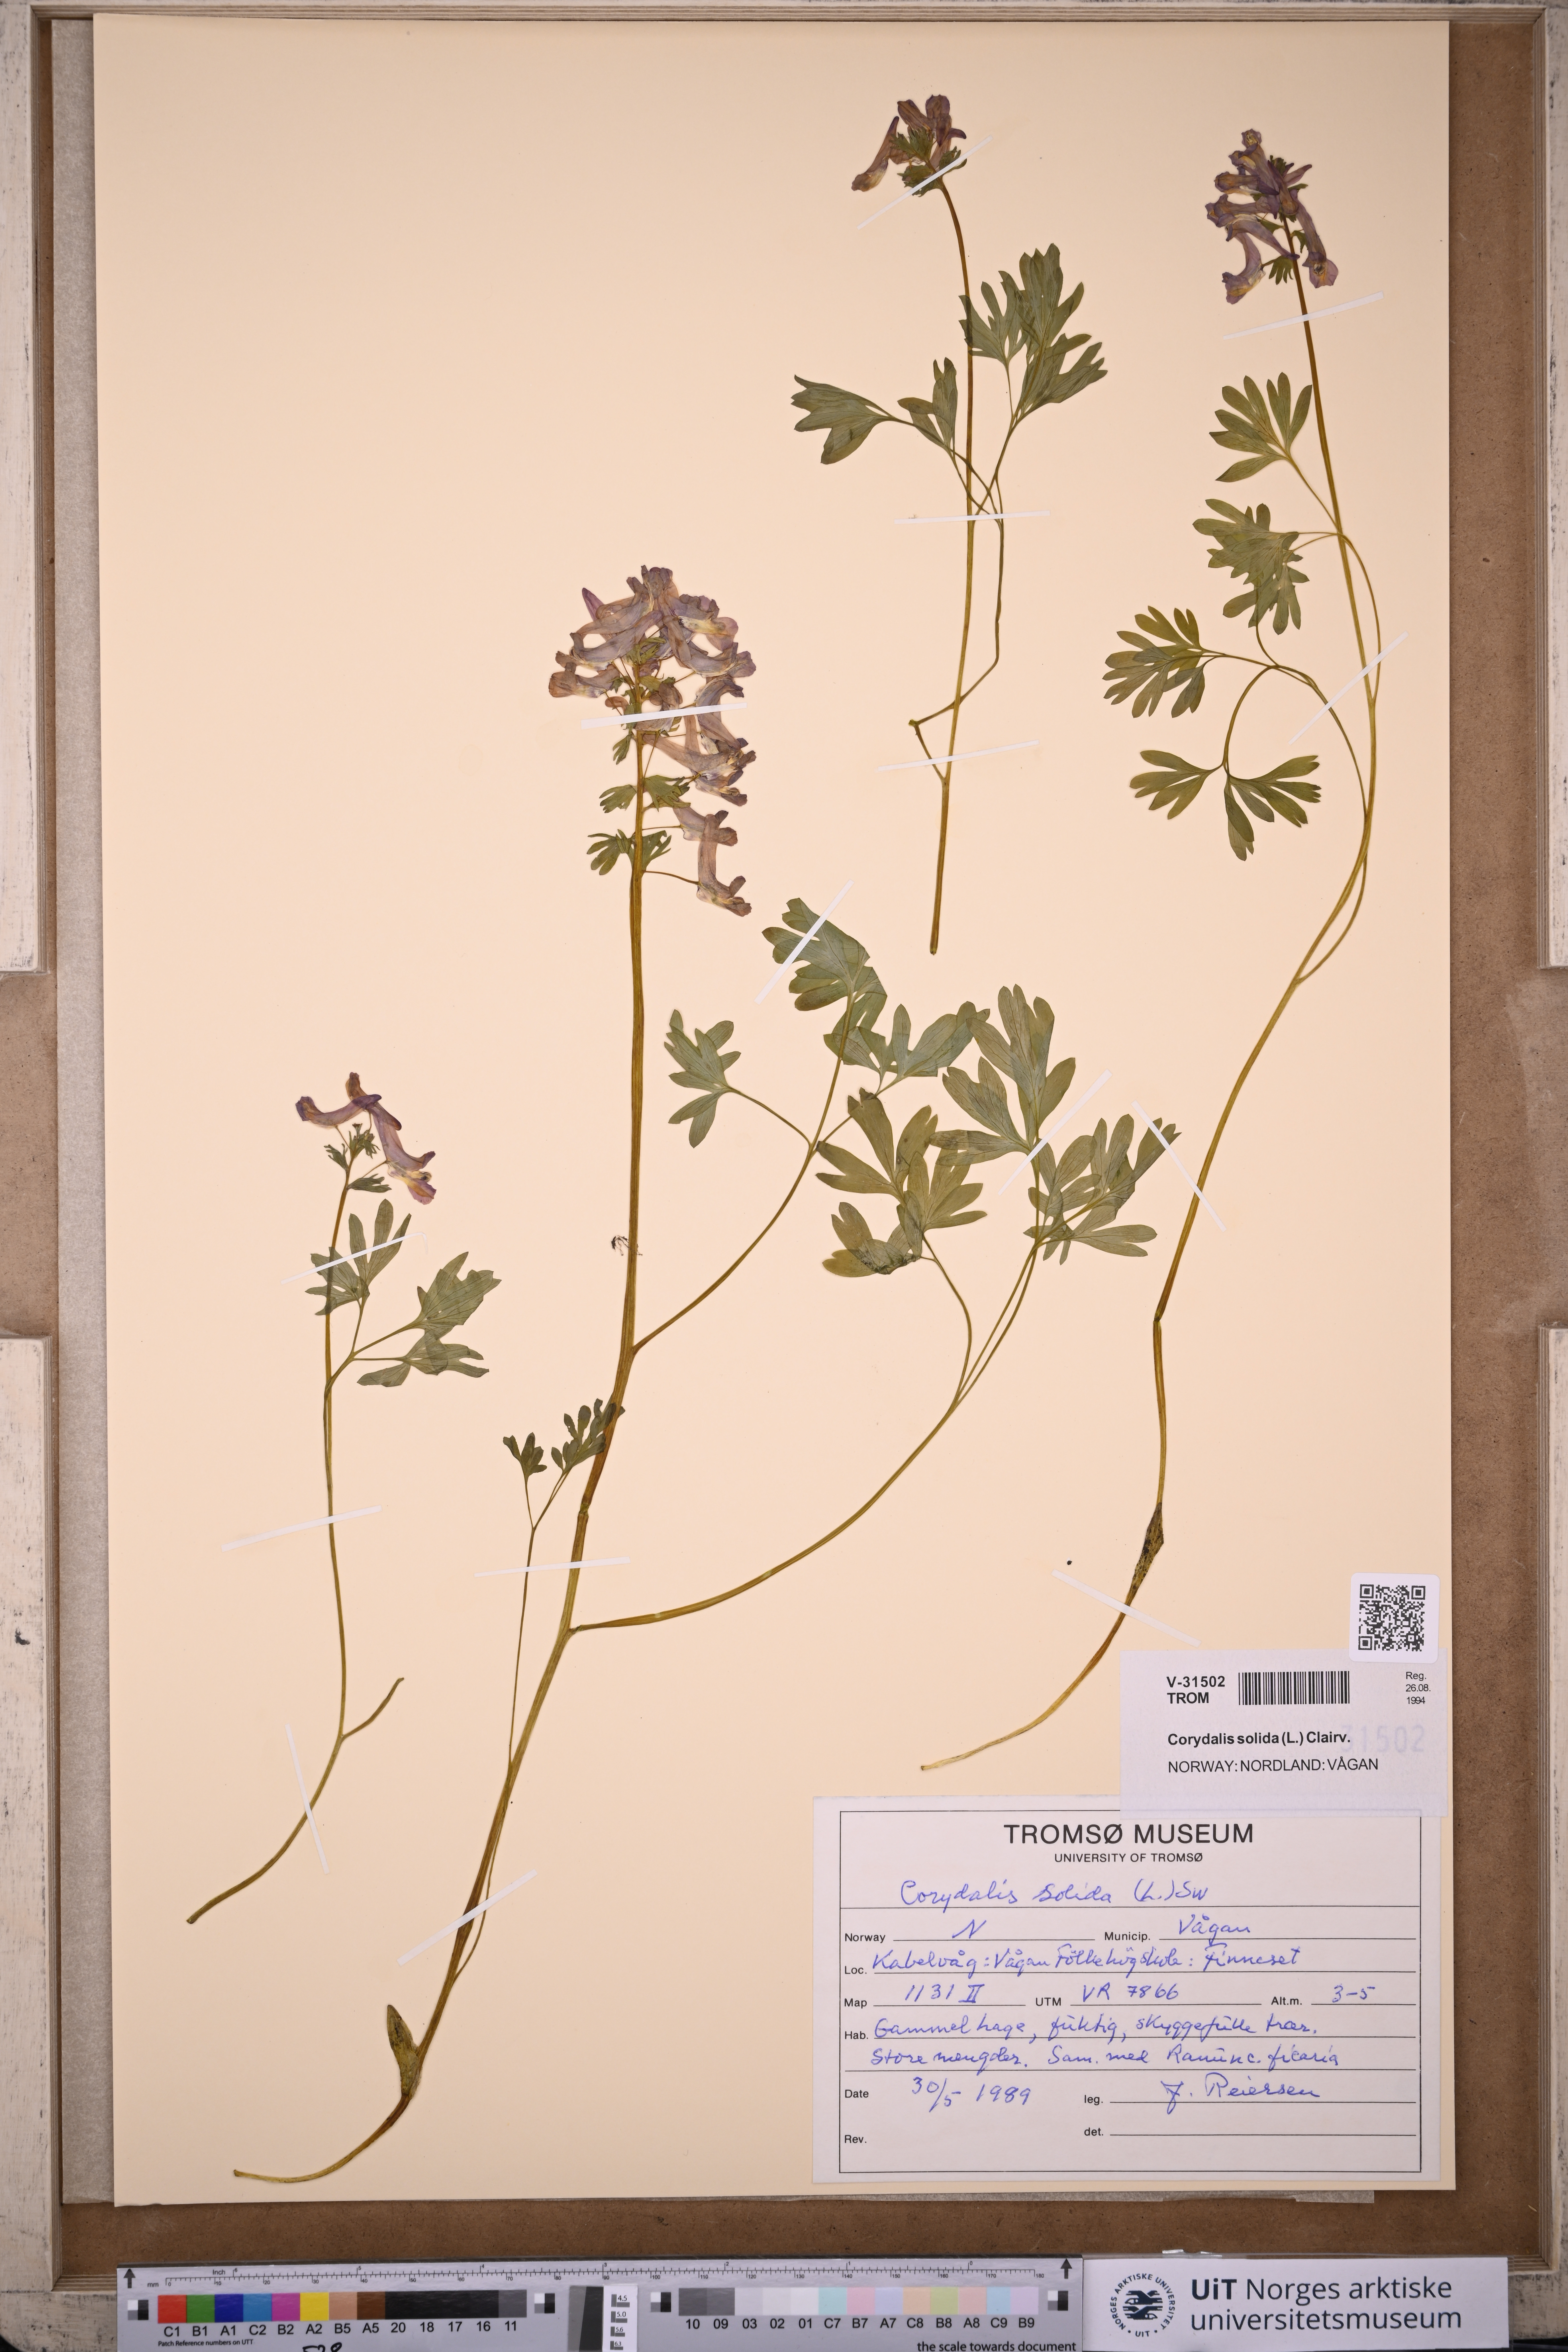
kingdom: Plantae
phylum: Tracheophyta
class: Magnoliopsida
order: Ranunculales
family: Papaveraceae
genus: Corydalis
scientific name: Corydalis solida
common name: Bird-in-a-bush
